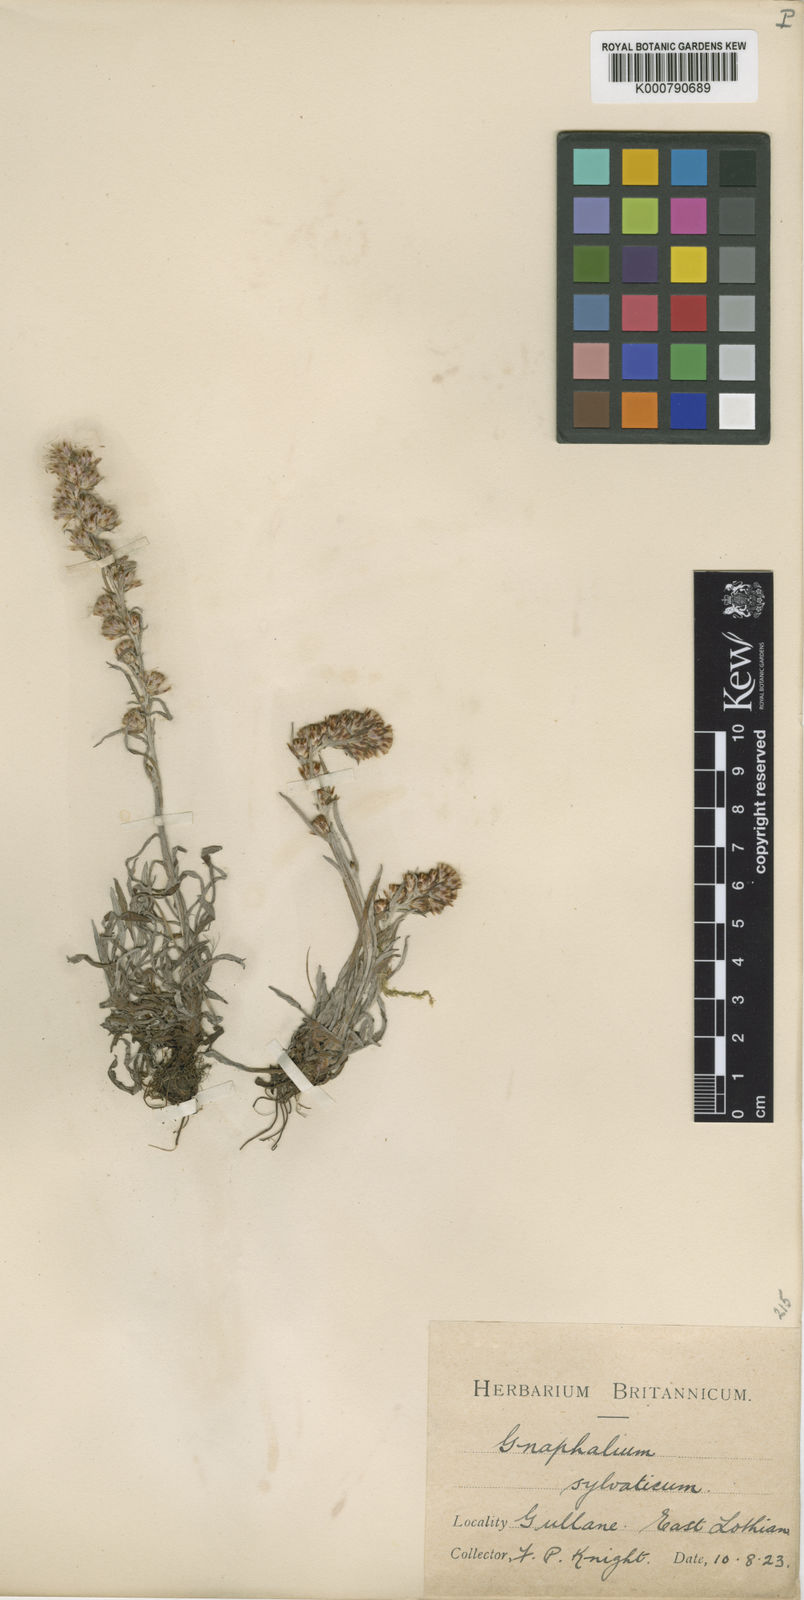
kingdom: Plantae
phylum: Tracheophyta
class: Magnoliopsida
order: Asterales
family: Asteraceae
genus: Omalotheca
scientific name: Omalotheca sylvatica
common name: Heath cudweed
